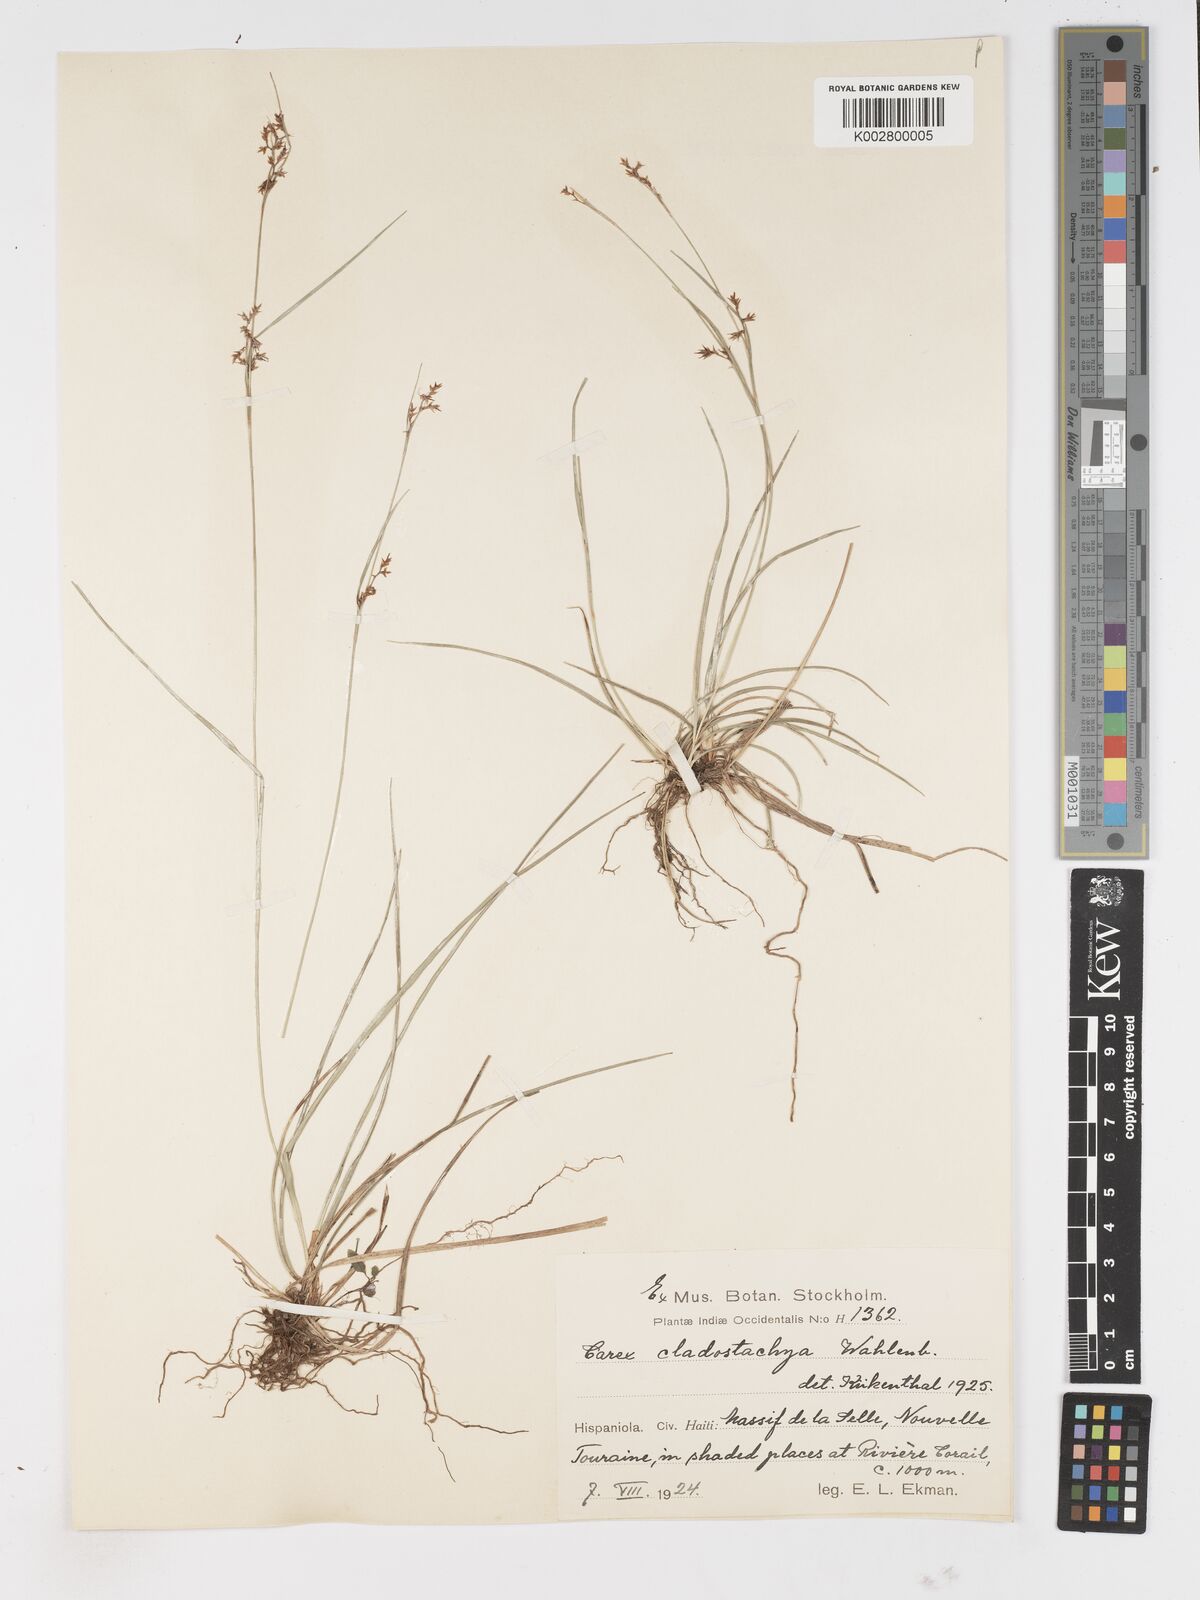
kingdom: Plantae
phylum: Tracheophyta
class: Liliopsida
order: Poales
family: Cyperaceae
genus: Carex
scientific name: Carex polystachya
